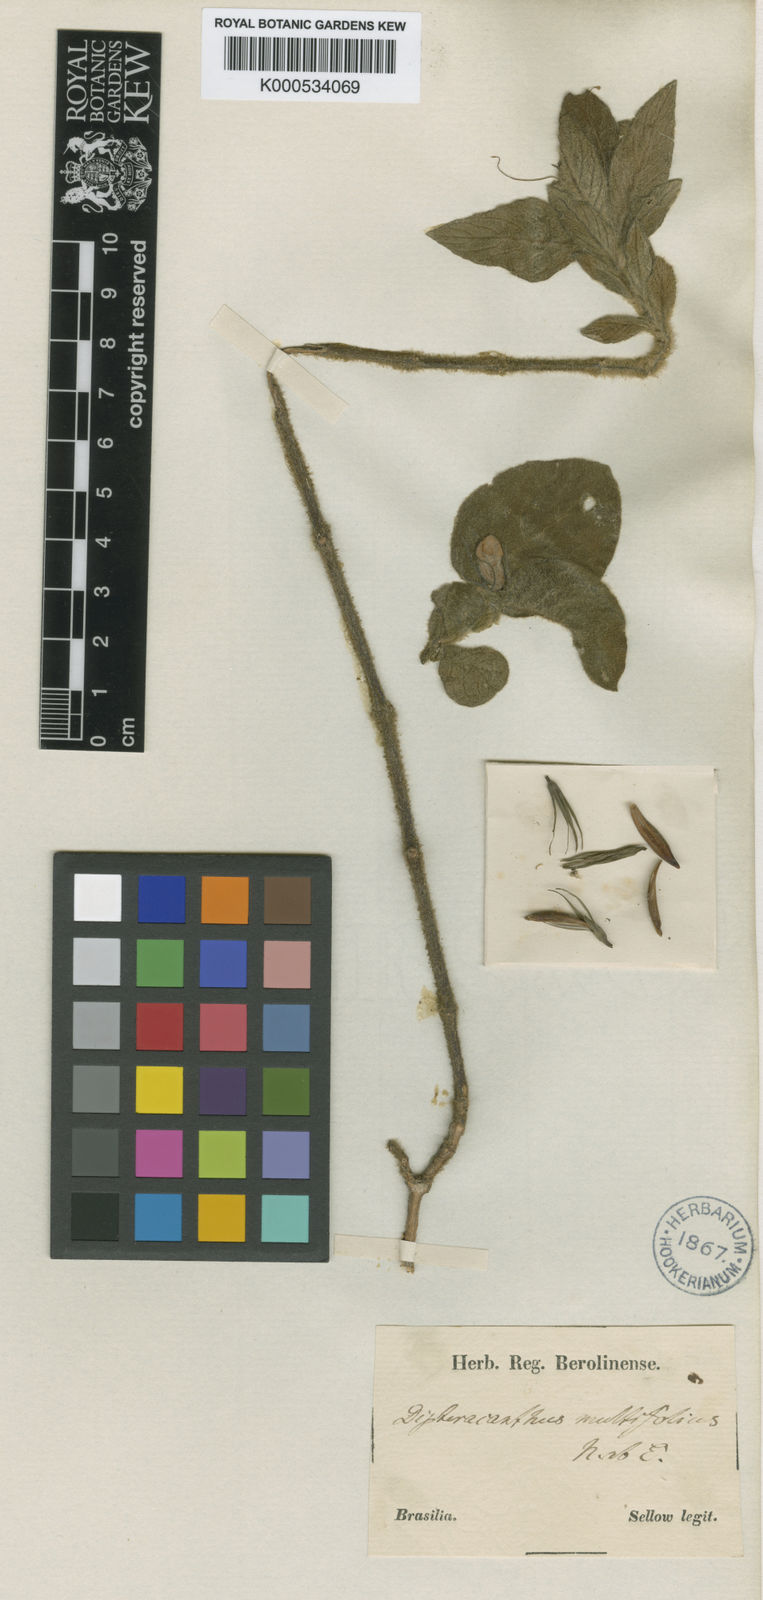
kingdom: Plantae
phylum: Tracheophyta
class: Magnoliopsida
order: Lamiales
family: Acanthaceae
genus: Ruellia
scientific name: Ruellia multifolia
